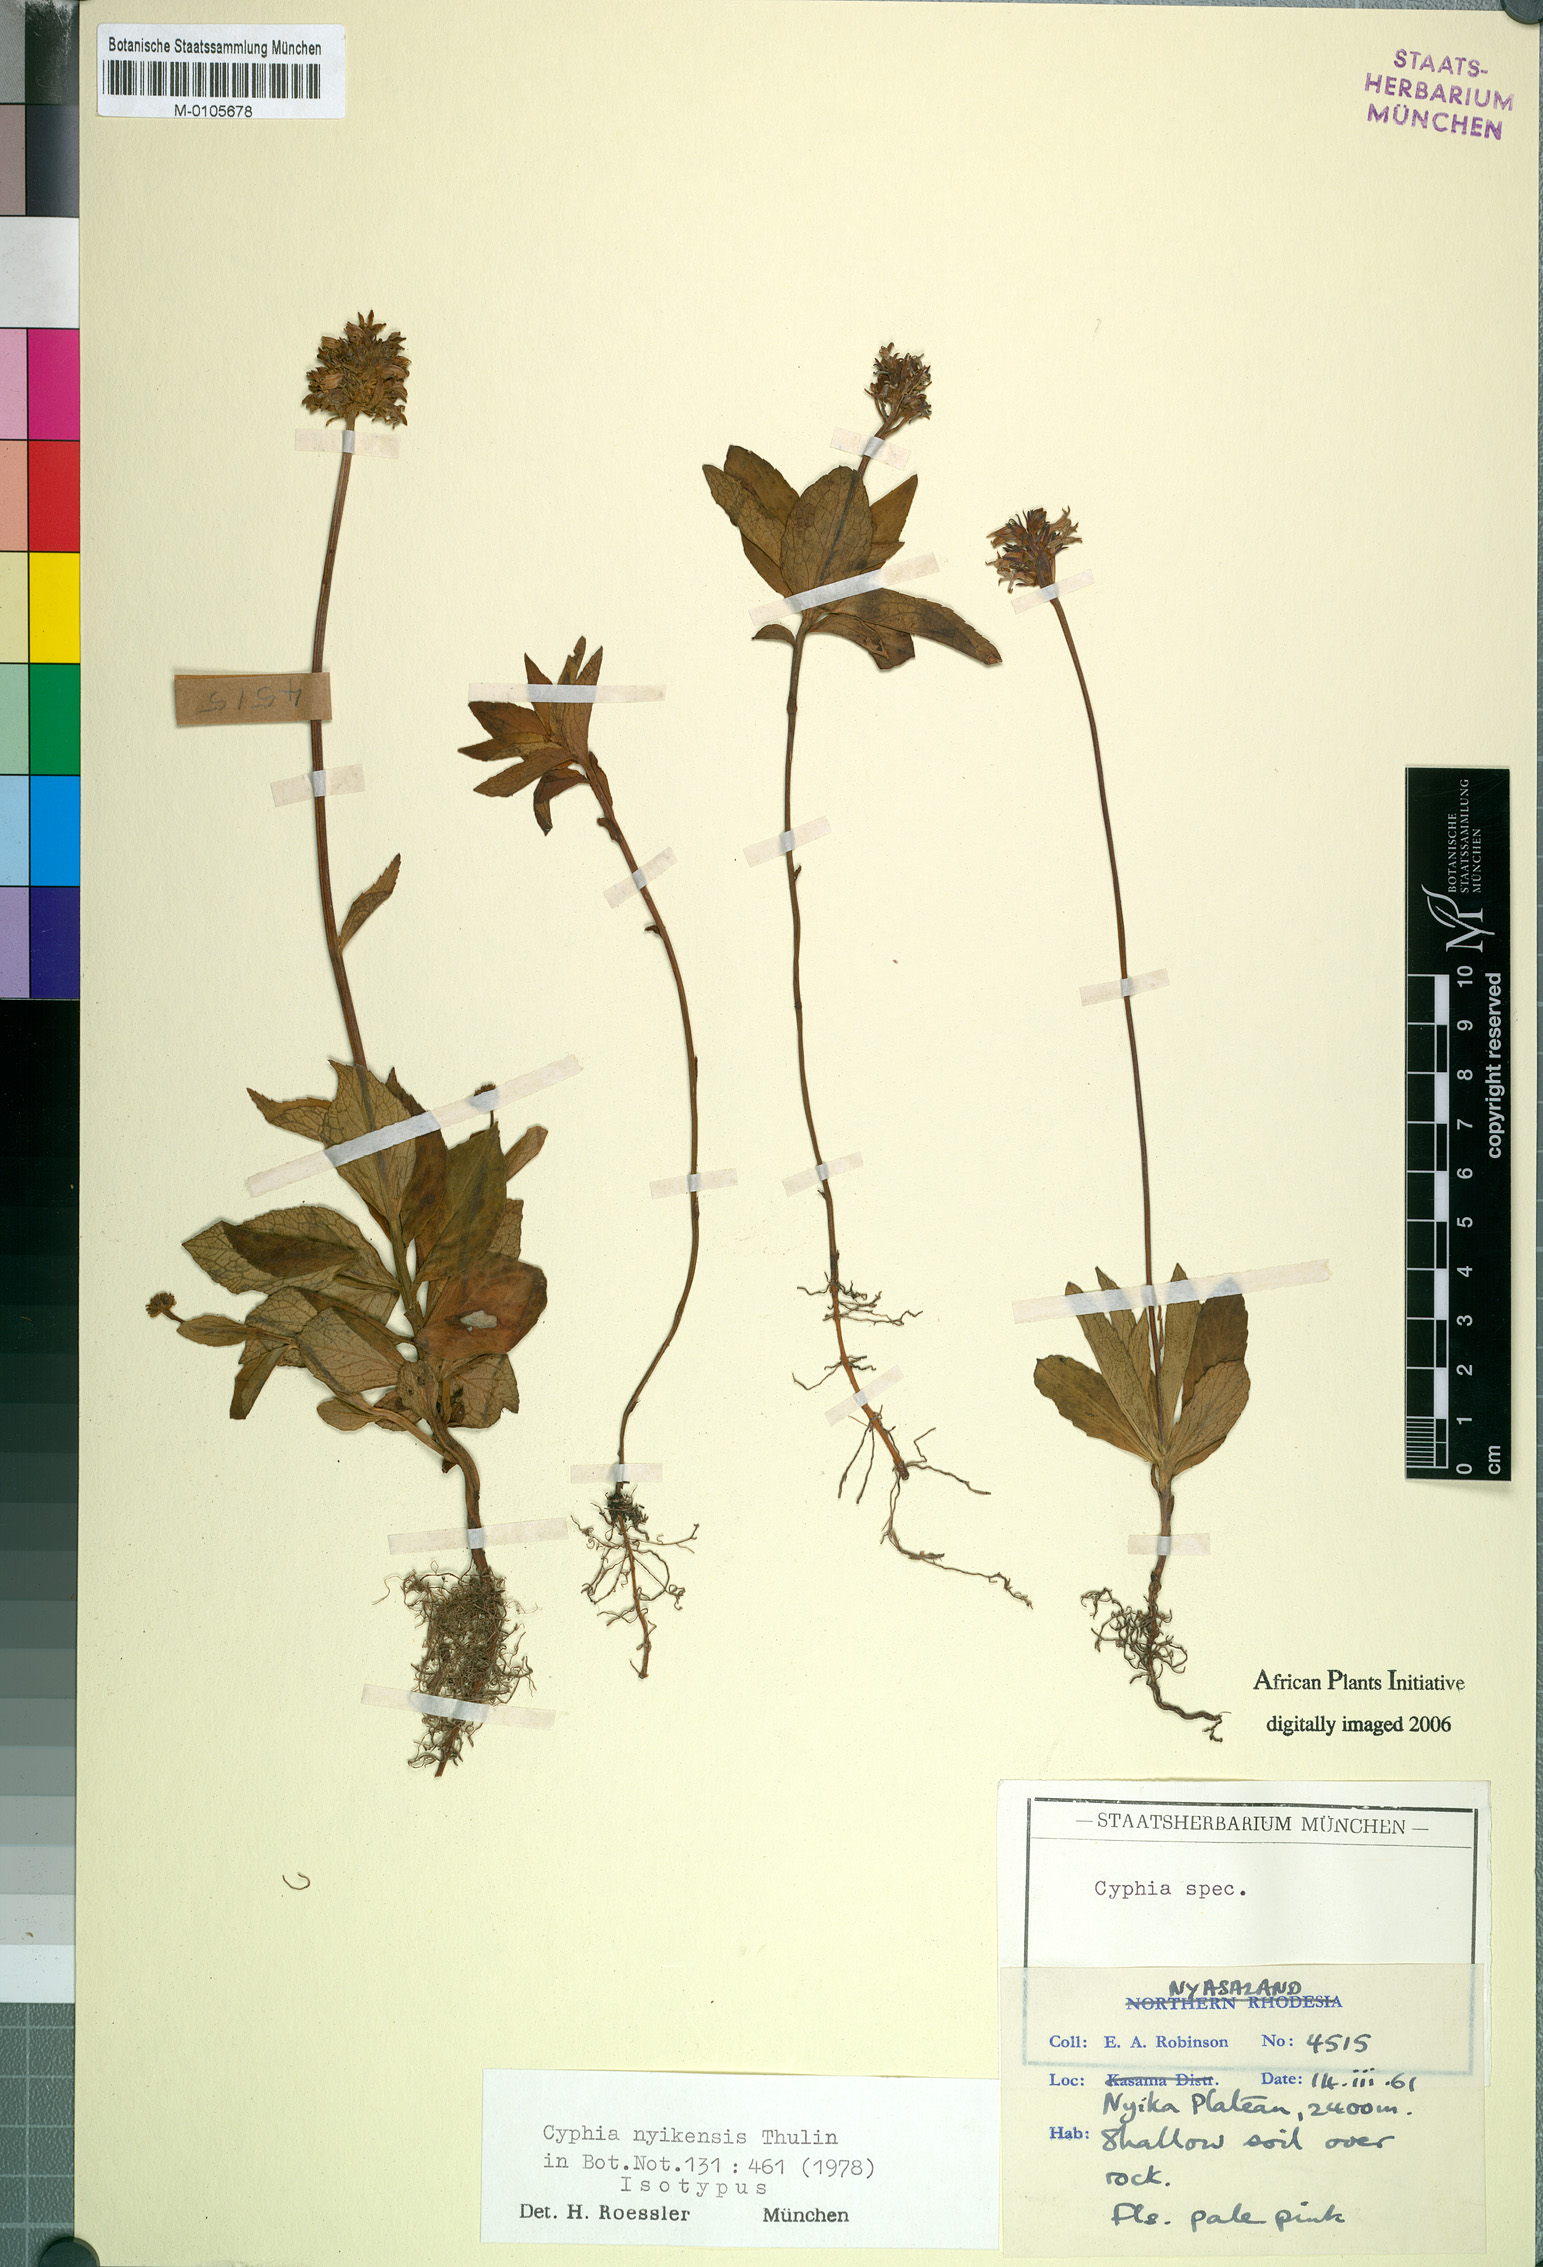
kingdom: Plantae
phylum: Tracheophyta
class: Magnoliopsida
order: Asterales
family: Campanulaceae
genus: Cyphia
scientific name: Cyphia nyikensis
